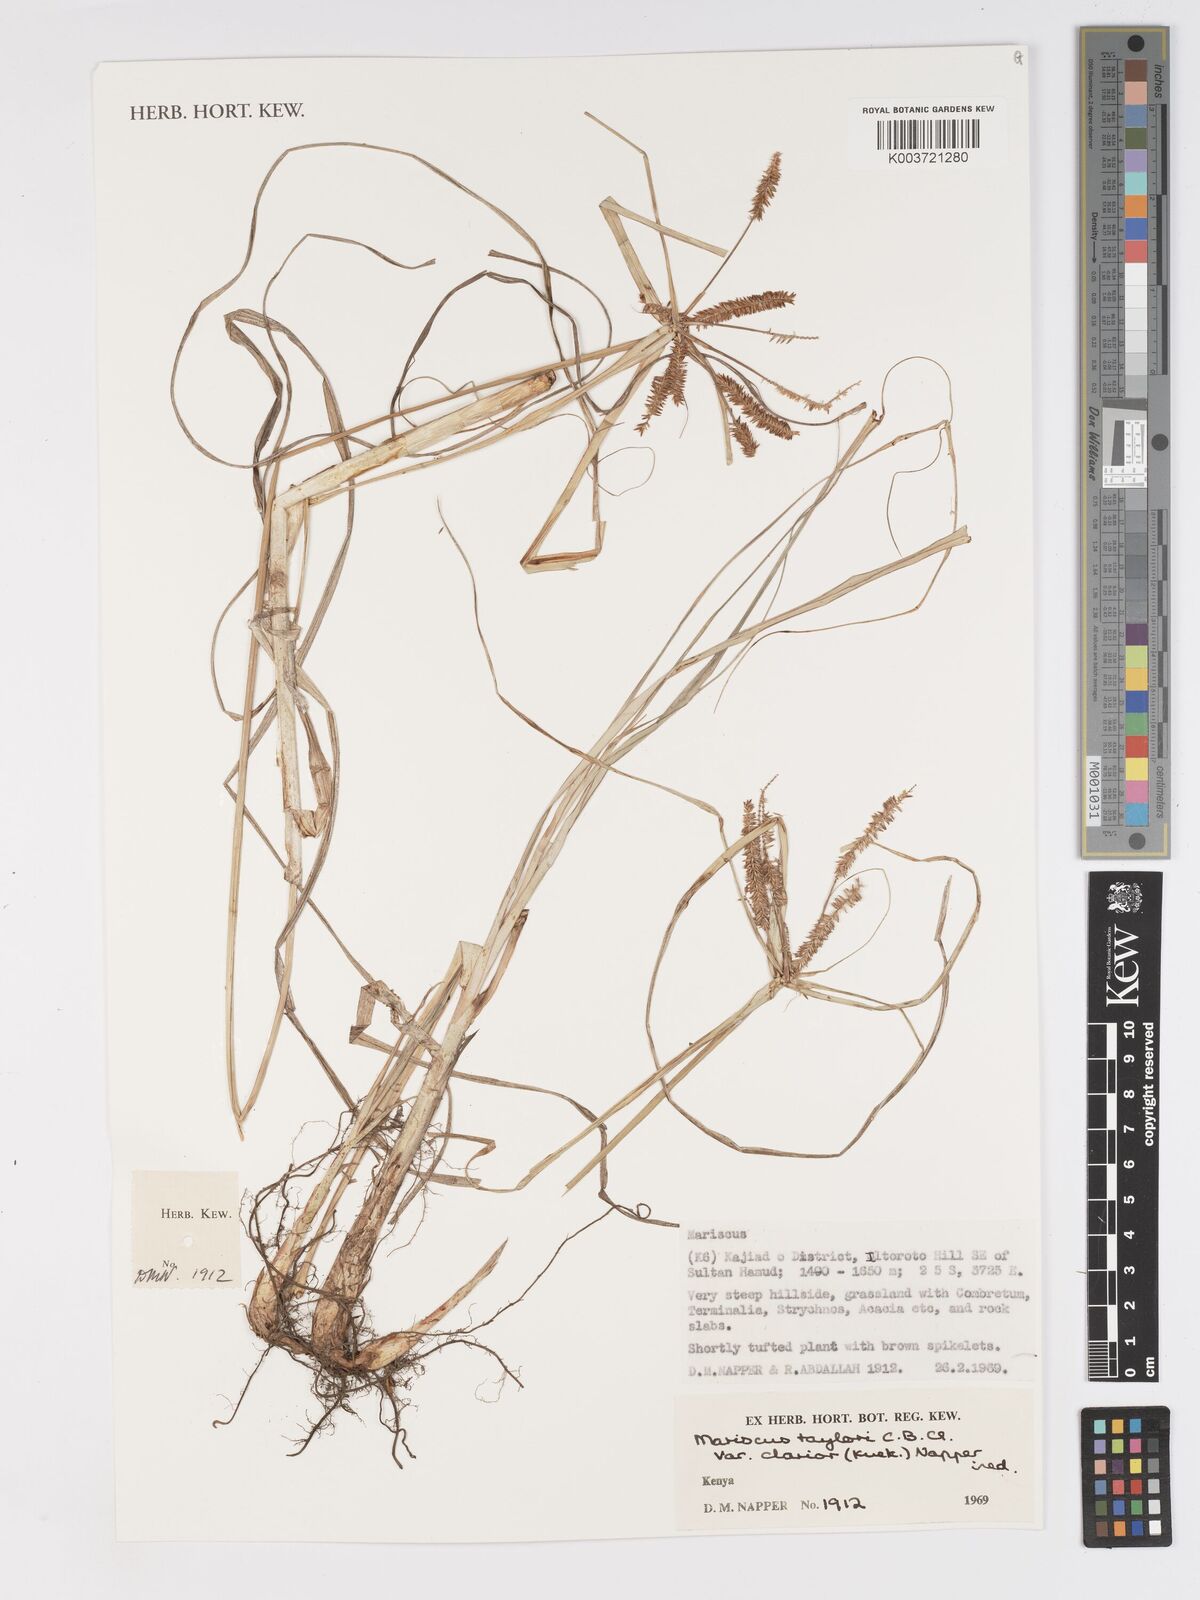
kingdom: Plantae
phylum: Tracheophyta
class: Liliopsida
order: Poales
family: Cyperaceae
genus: Cyperus
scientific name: Cyperus oblongoincrassatus
